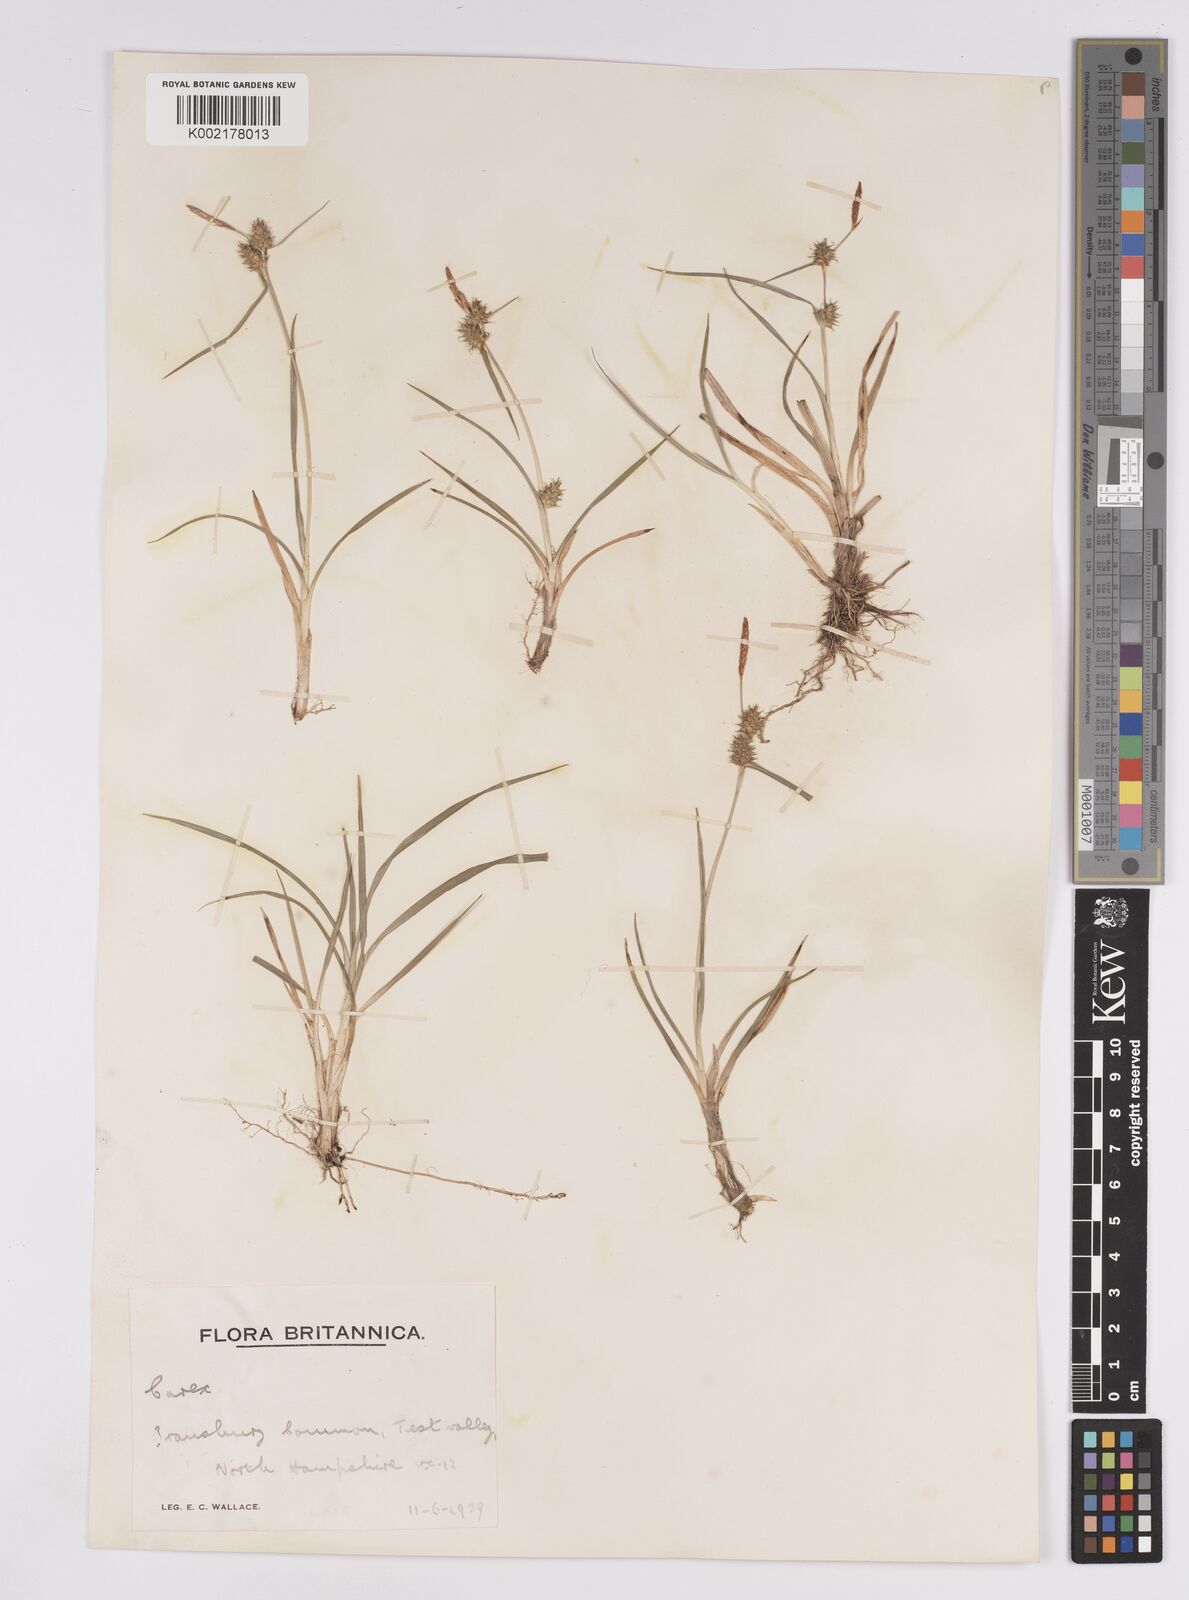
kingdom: Plantae
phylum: Tracheophyta
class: Liliopsida
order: Poales
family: Cyperaceae
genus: Carex
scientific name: Carex demissa
